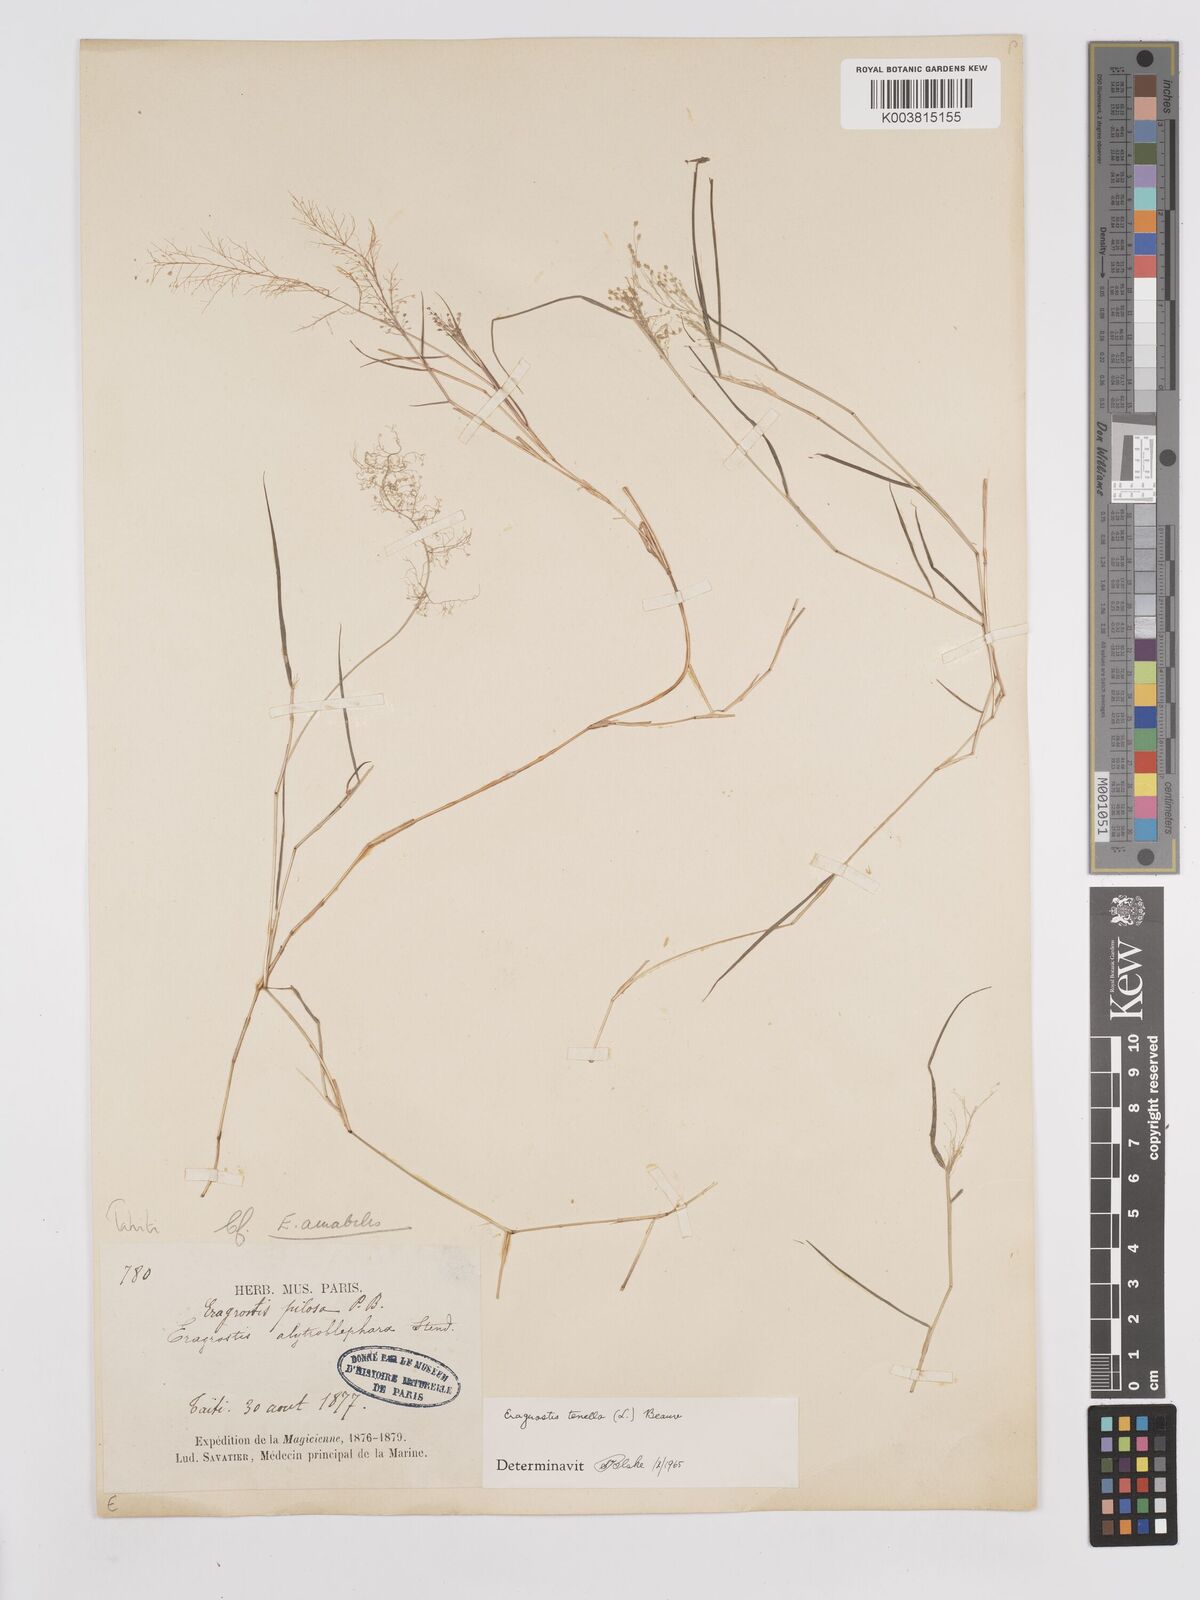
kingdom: Plantae
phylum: Tracheophyta
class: Liliopsida
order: Poales
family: Poaceae
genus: Eragrostis
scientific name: Eragrostis tenella
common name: Japanese lovegrass
